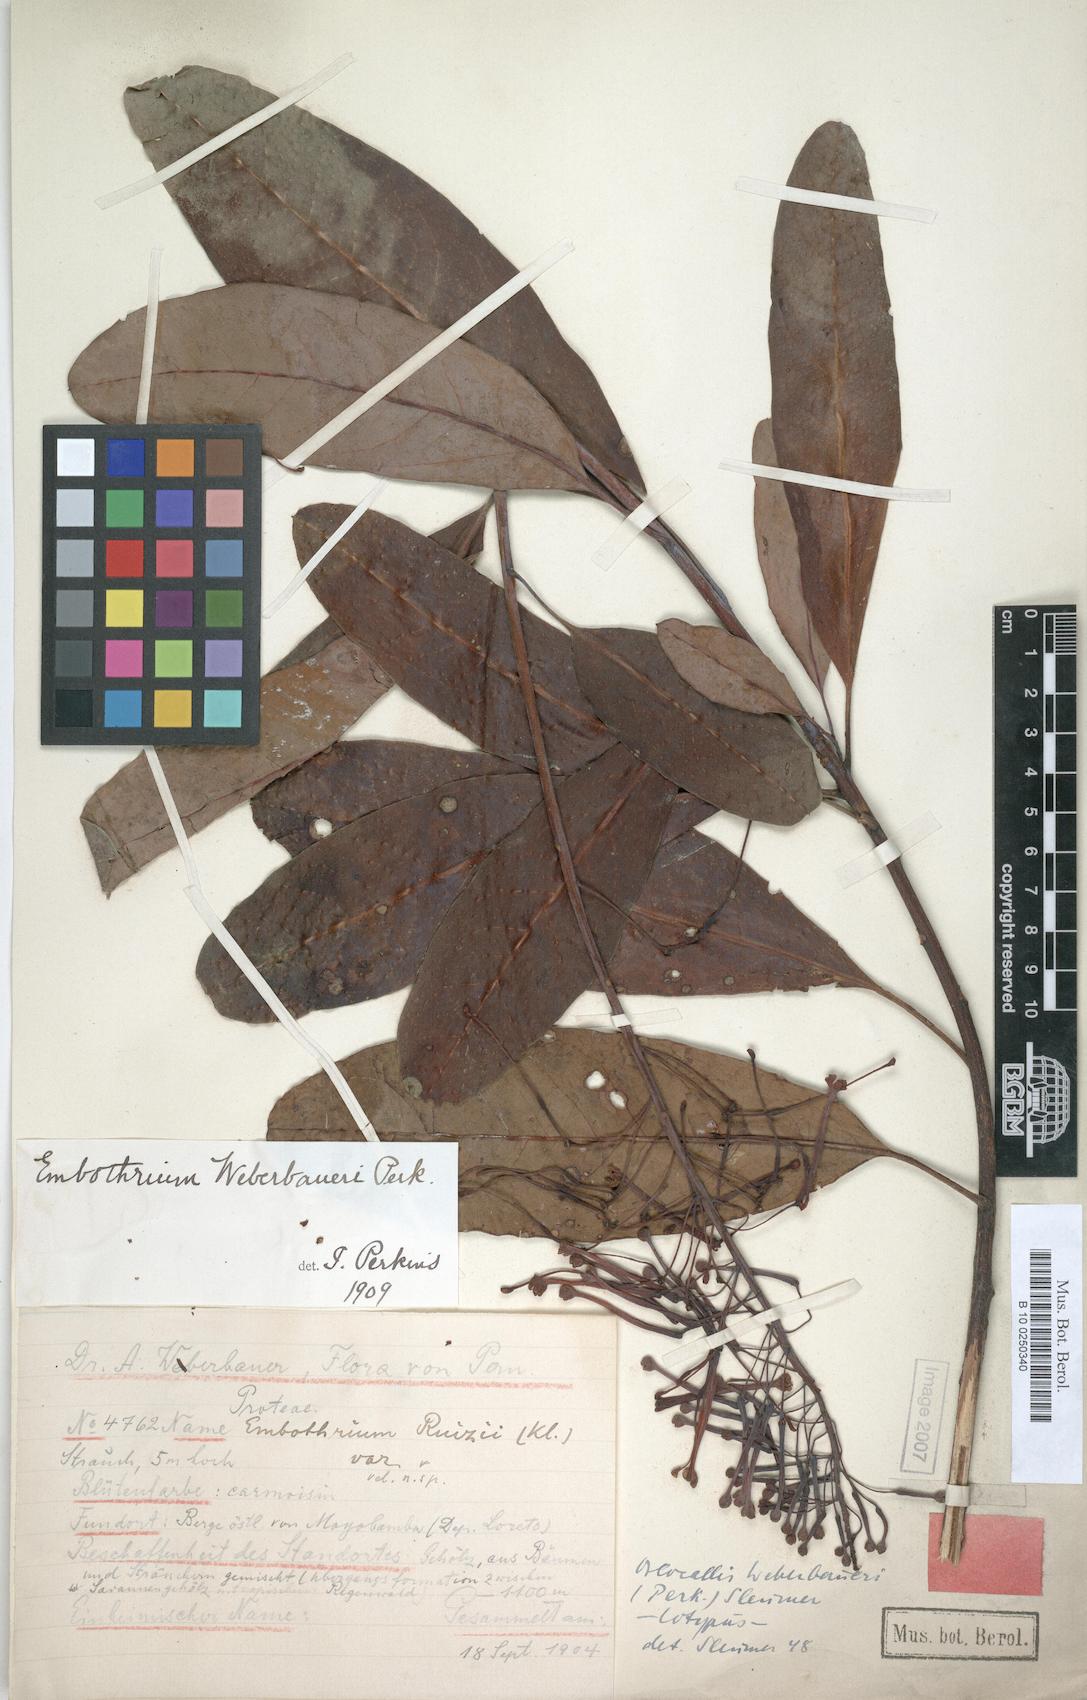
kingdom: Plantae
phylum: Tracheophyta
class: Magnoliopsida
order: Proteales
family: Proteaceae
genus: Oreocallis
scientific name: Oreocallis grandiflora
